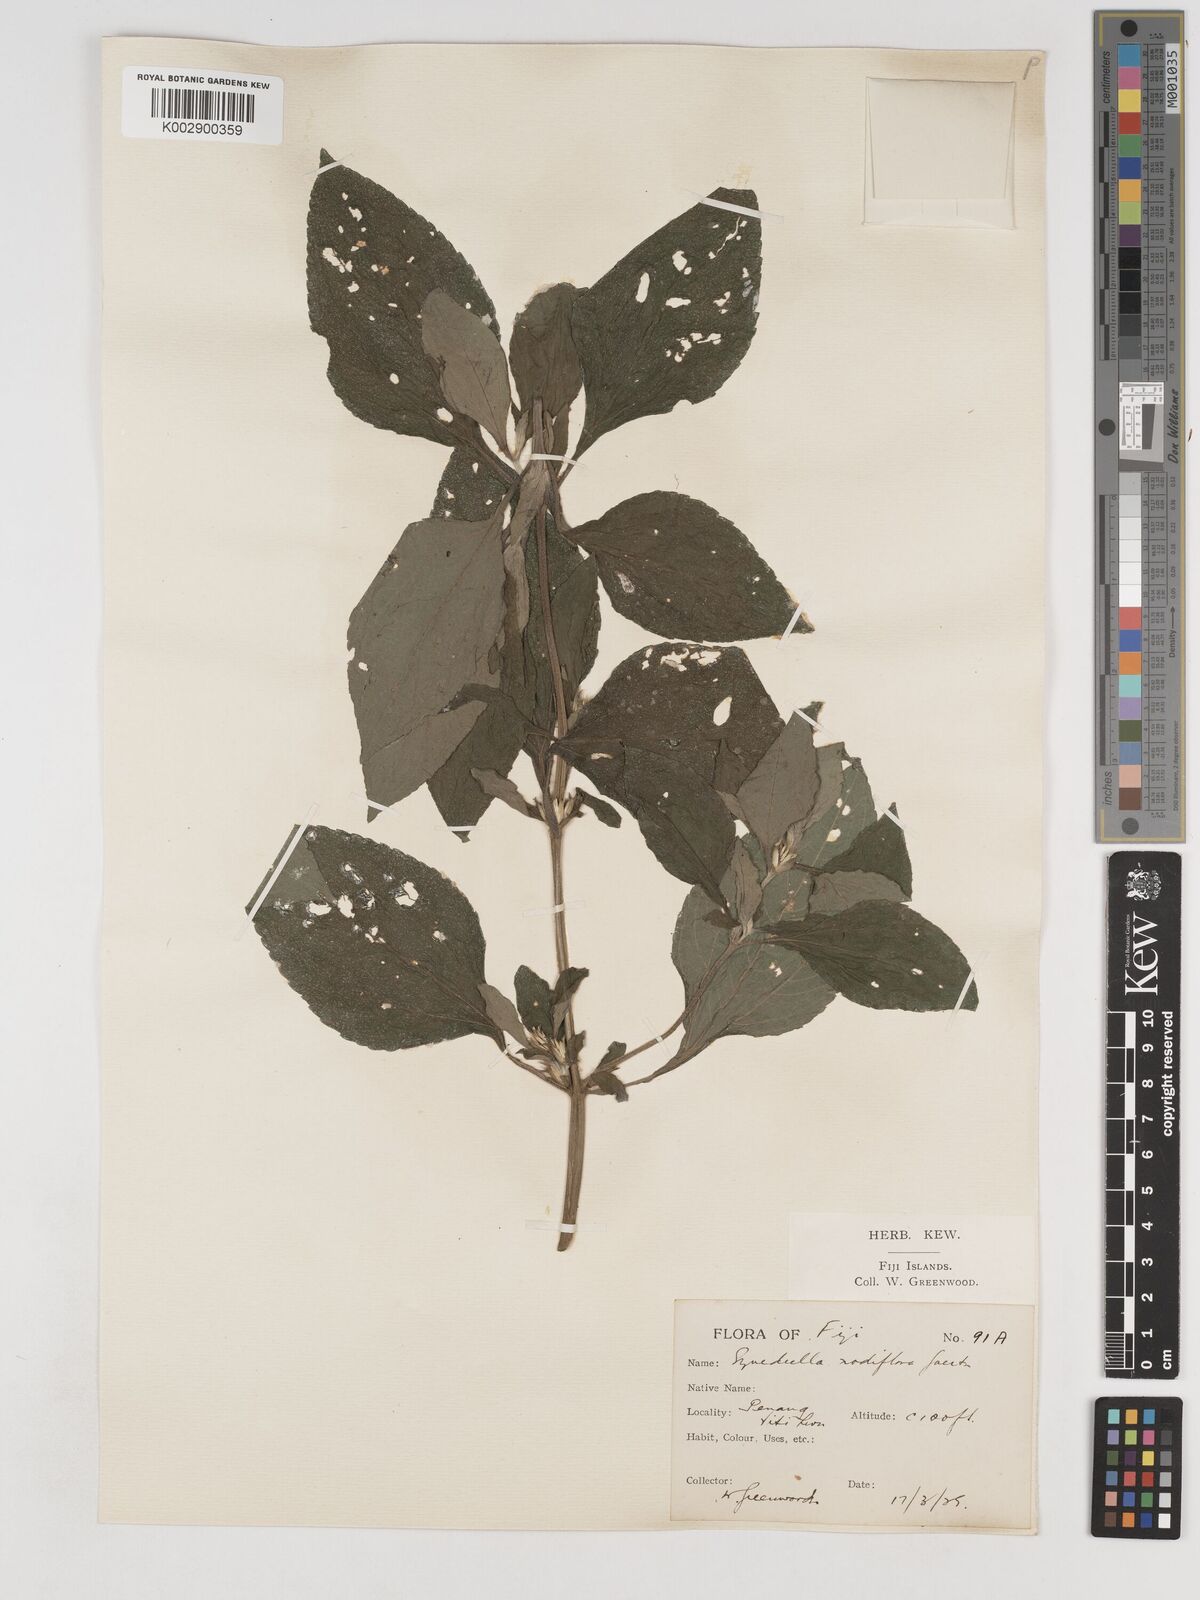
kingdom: Plantae
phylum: Tracheophyta
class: Magnoliopsida
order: Asterales
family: Asteraceae
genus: Synedrella
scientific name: Synedrella nodiflora
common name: Nodeweed
